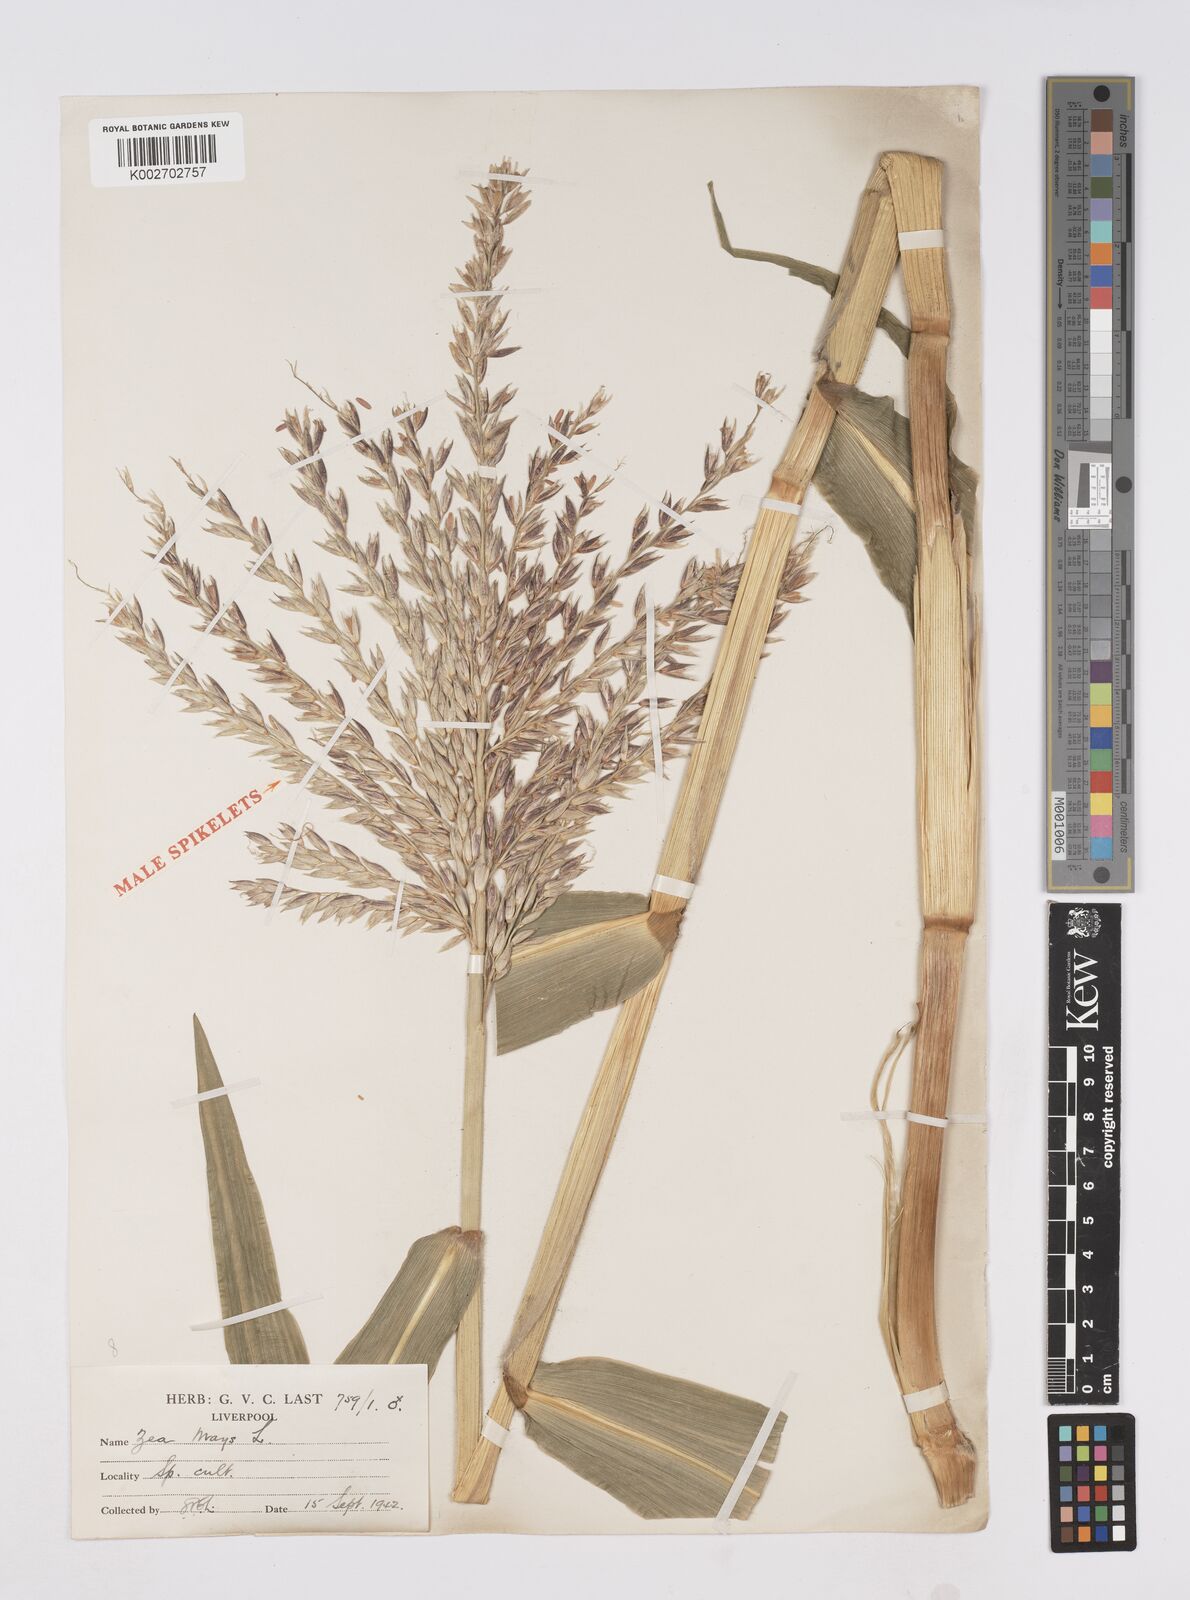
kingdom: Plantae
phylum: Tracheophyta
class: Liliopsida
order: Poales
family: Poaceae
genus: Zea
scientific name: Zea mays
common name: Maize
